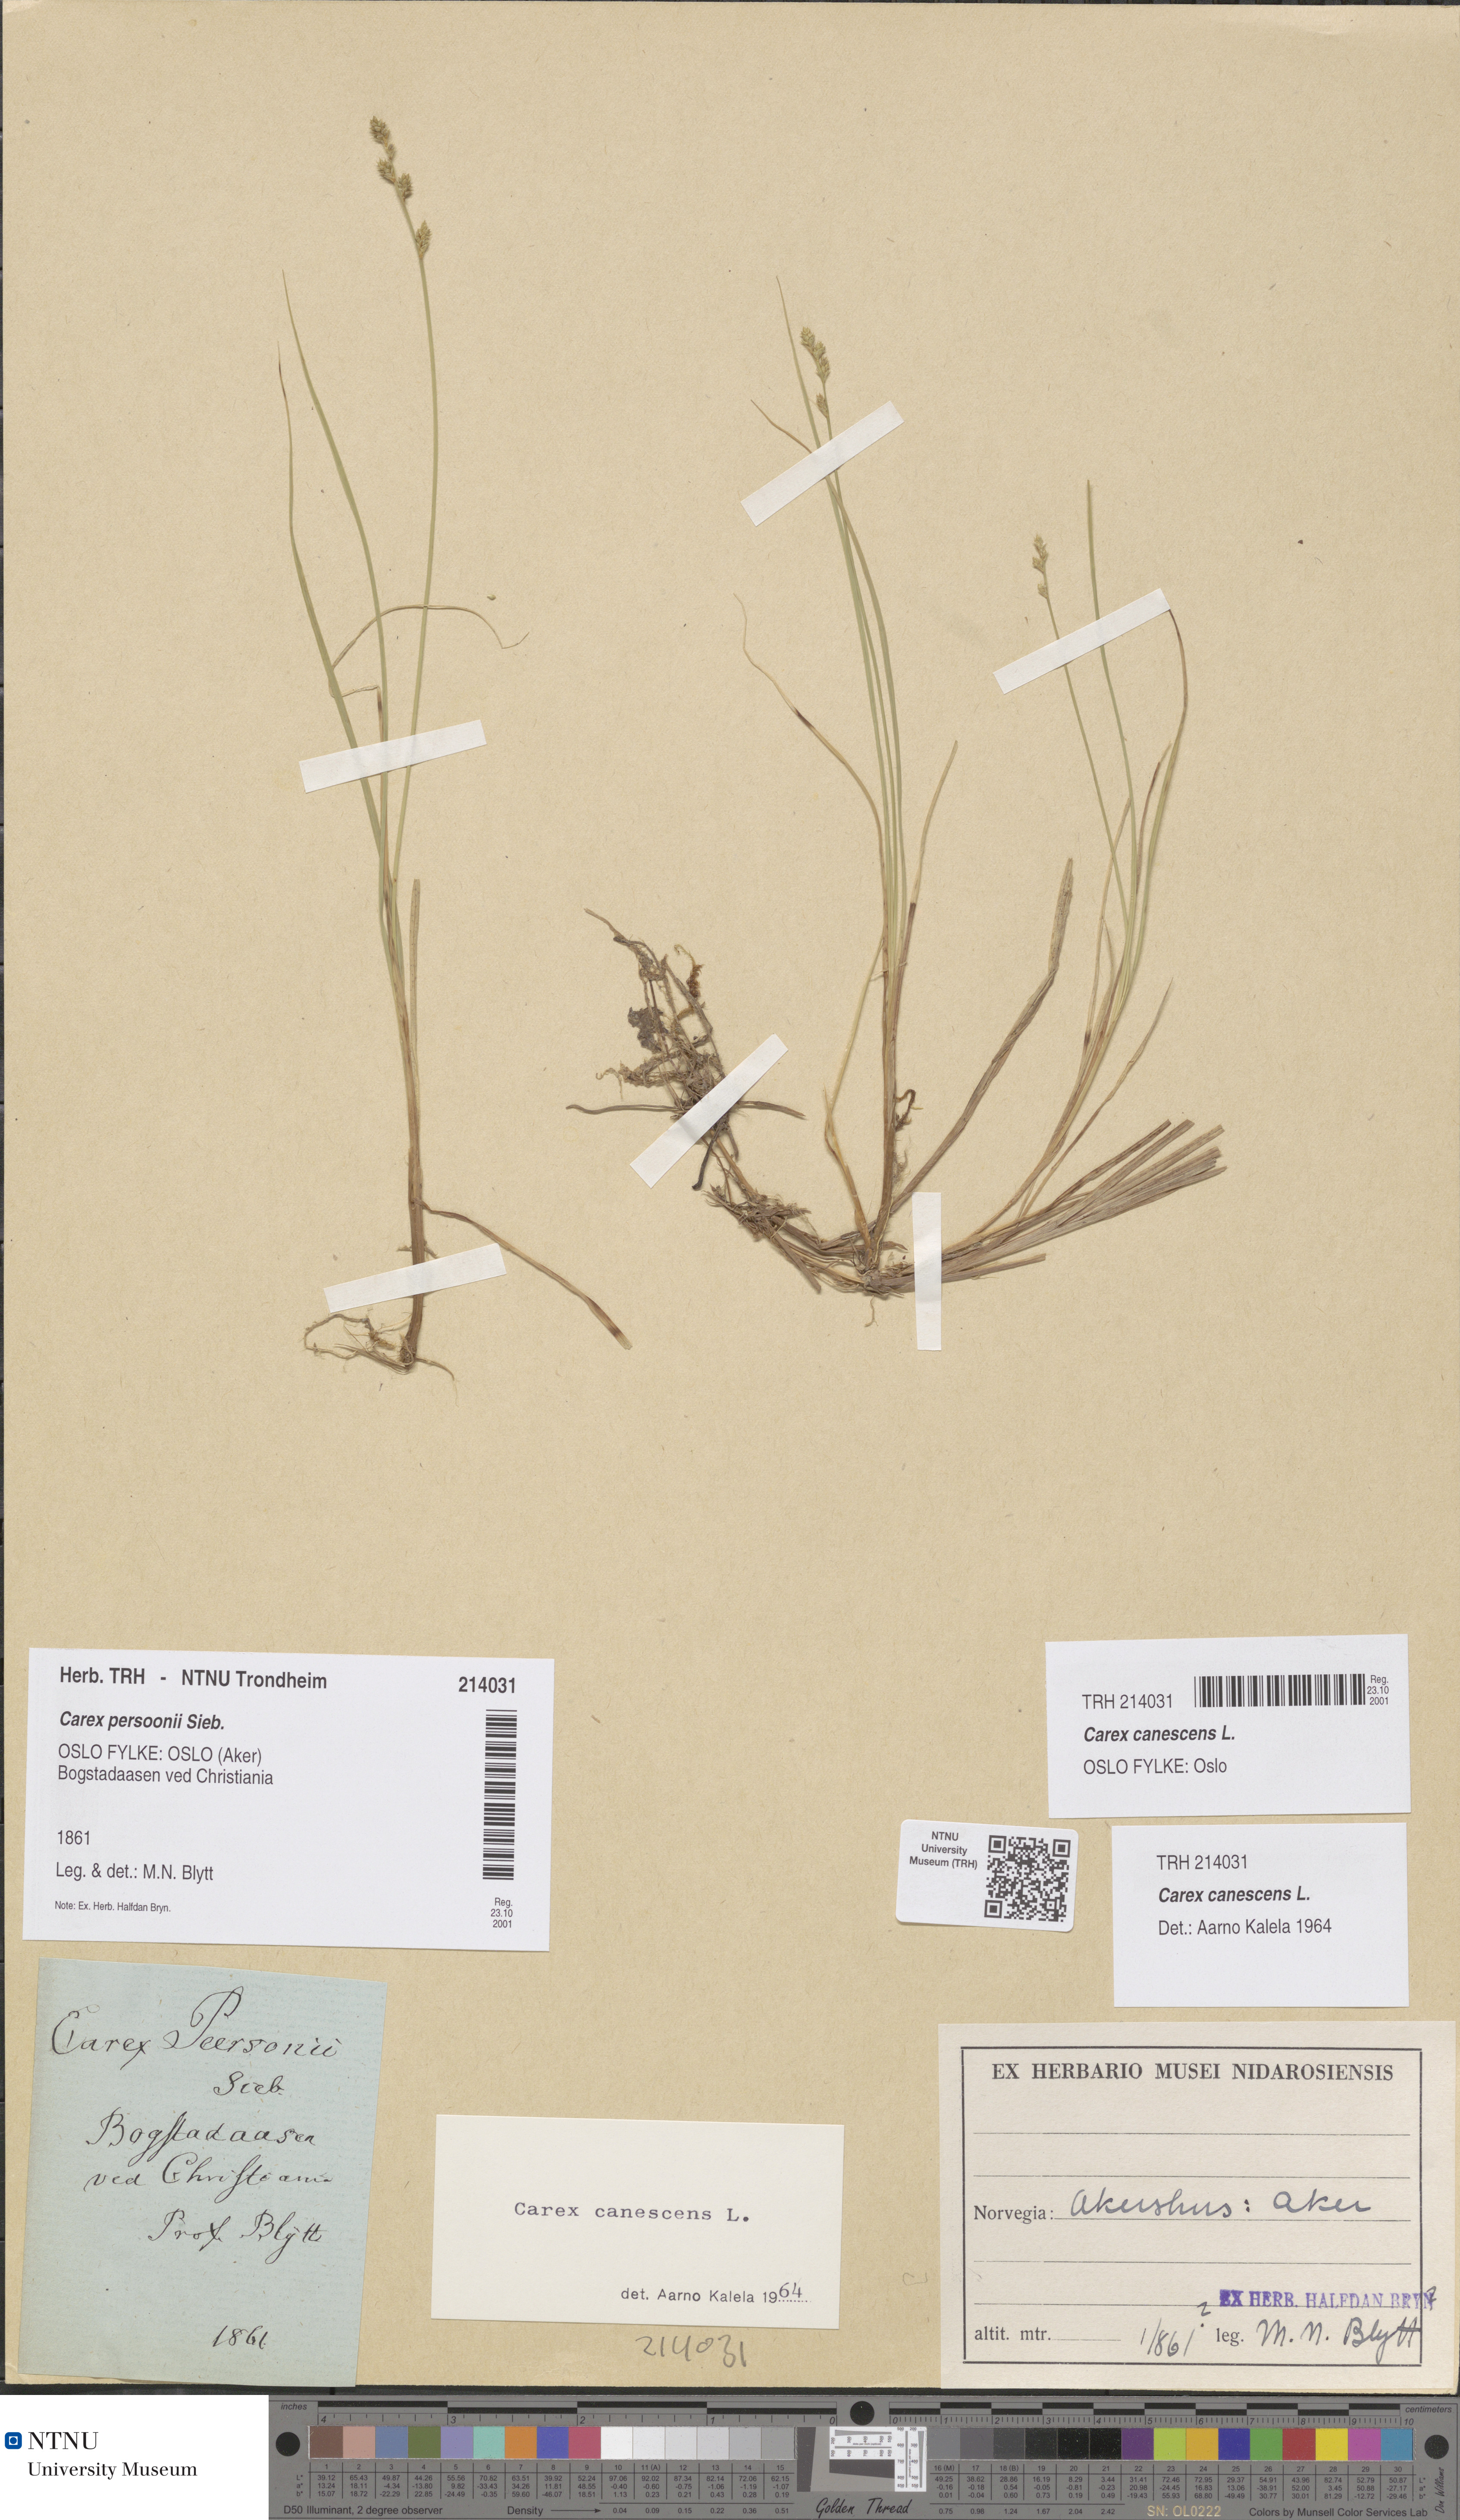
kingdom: Plantae
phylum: Tracheophyta
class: Liliopsida
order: Poales
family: Cyperaceae
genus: Carex
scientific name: Carex canescens
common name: White sedge
